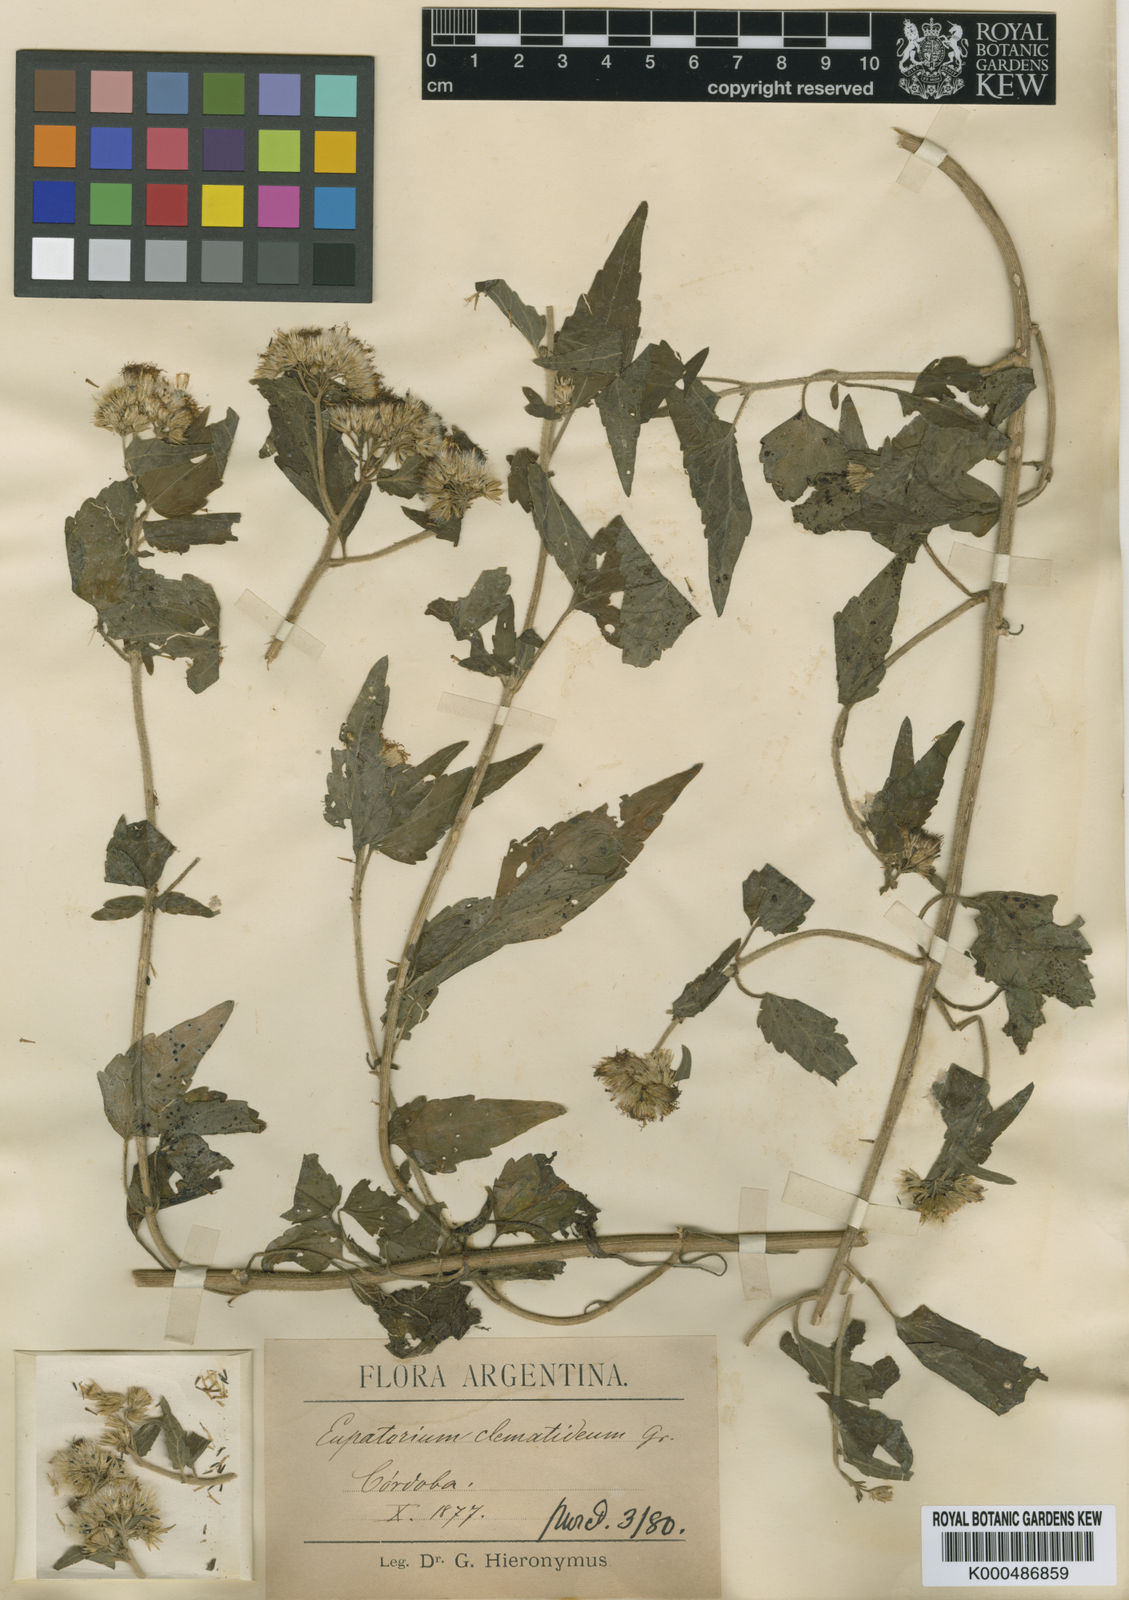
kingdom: Plantae
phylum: Tracheophyta
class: Magnoliopsida
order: Asterales
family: Asteraceae
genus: Praxelis
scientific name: Praxelis clematidea
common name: Praxelis
